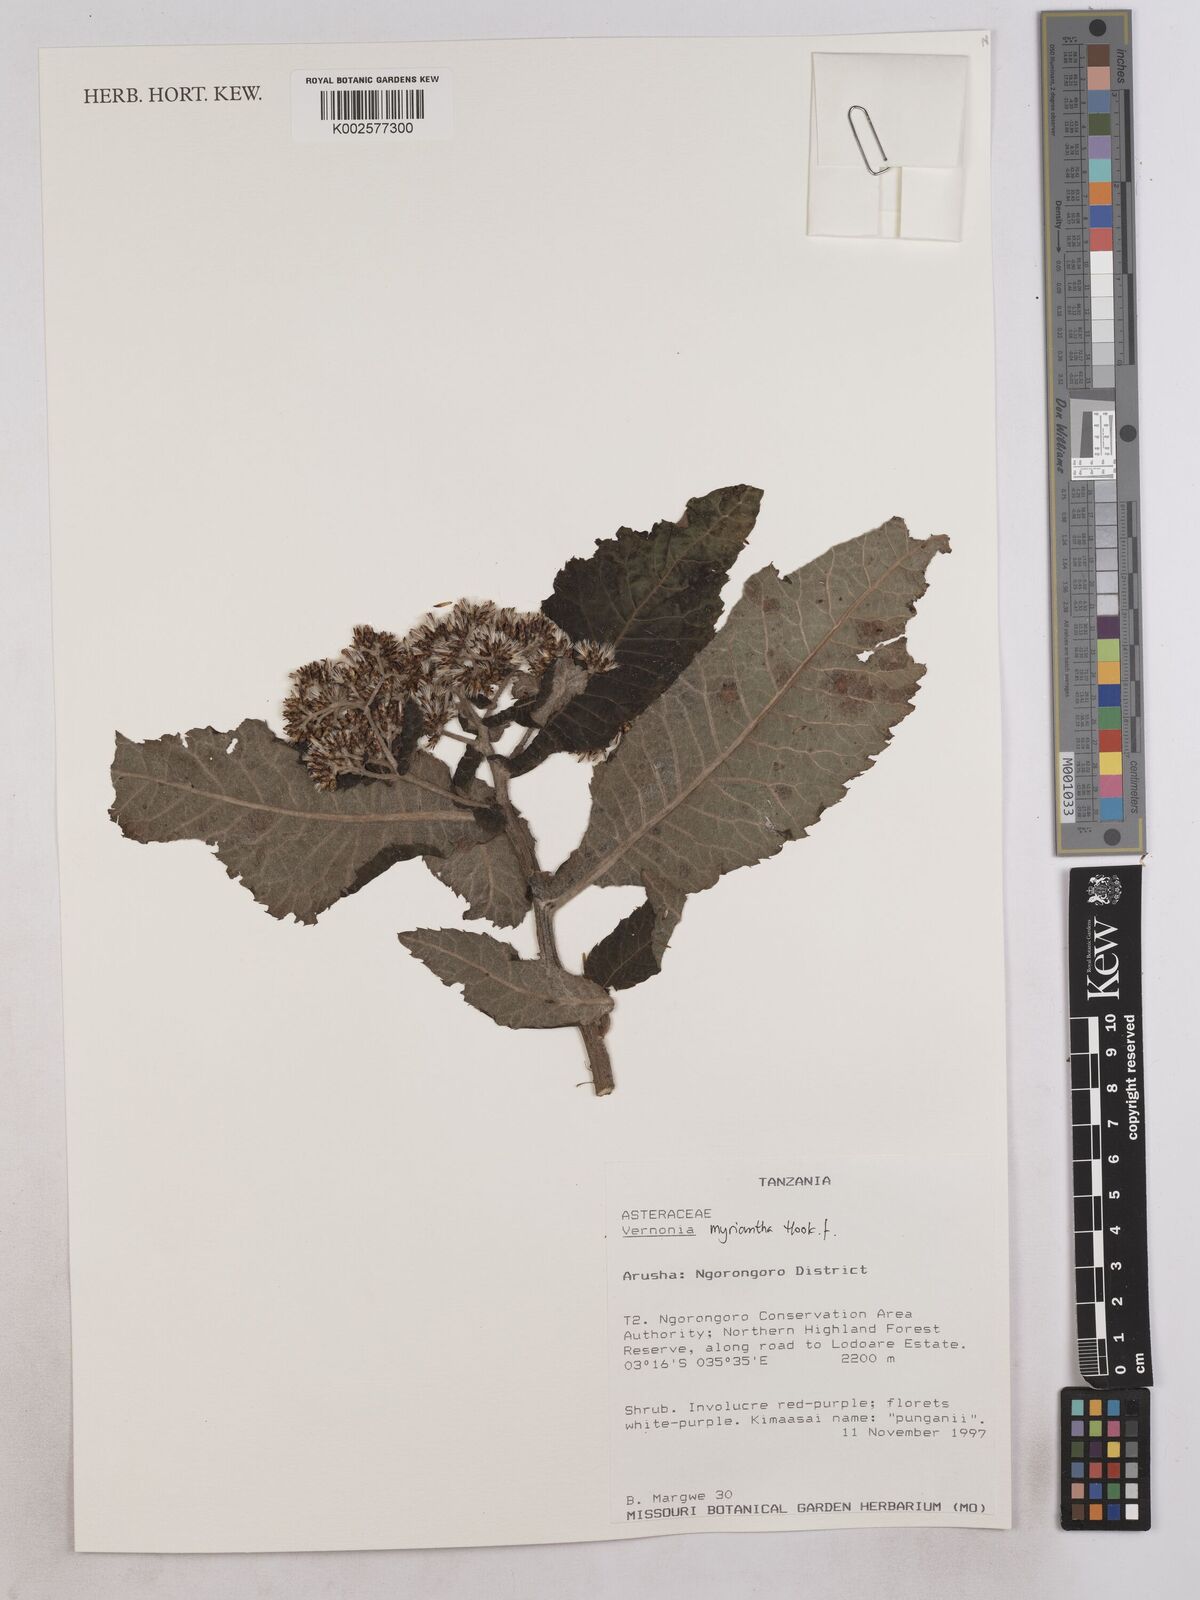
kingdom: Plantae
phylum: Tracheophyta
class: Magnoliopsida
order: Asterales
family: Asteraceae
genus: Gymnanthemum
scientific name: Gymnanthemum myrianthum
